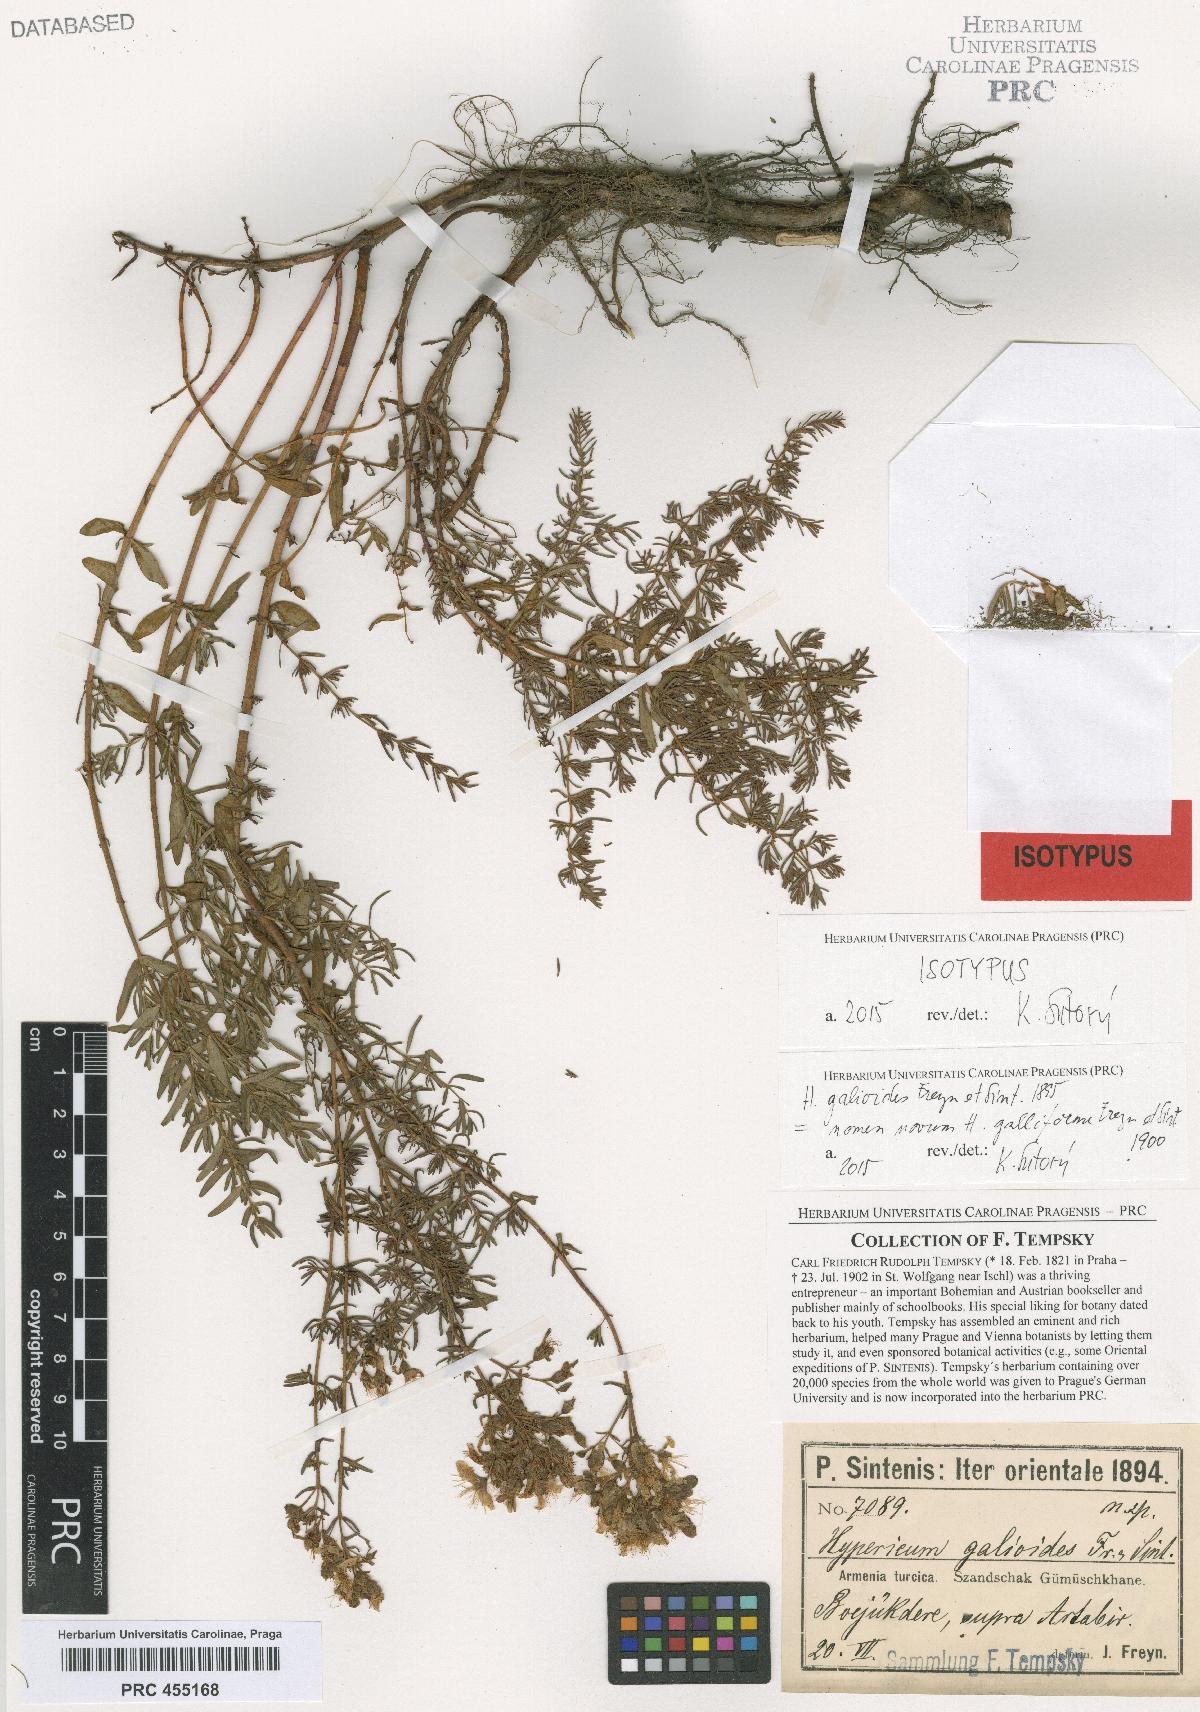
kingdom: Plantae
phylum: Tracheophyta
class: Magnoliopsida
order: Malpighiales
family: Hypericaceae
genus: Hypericum
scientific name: Hypericum scabrum
